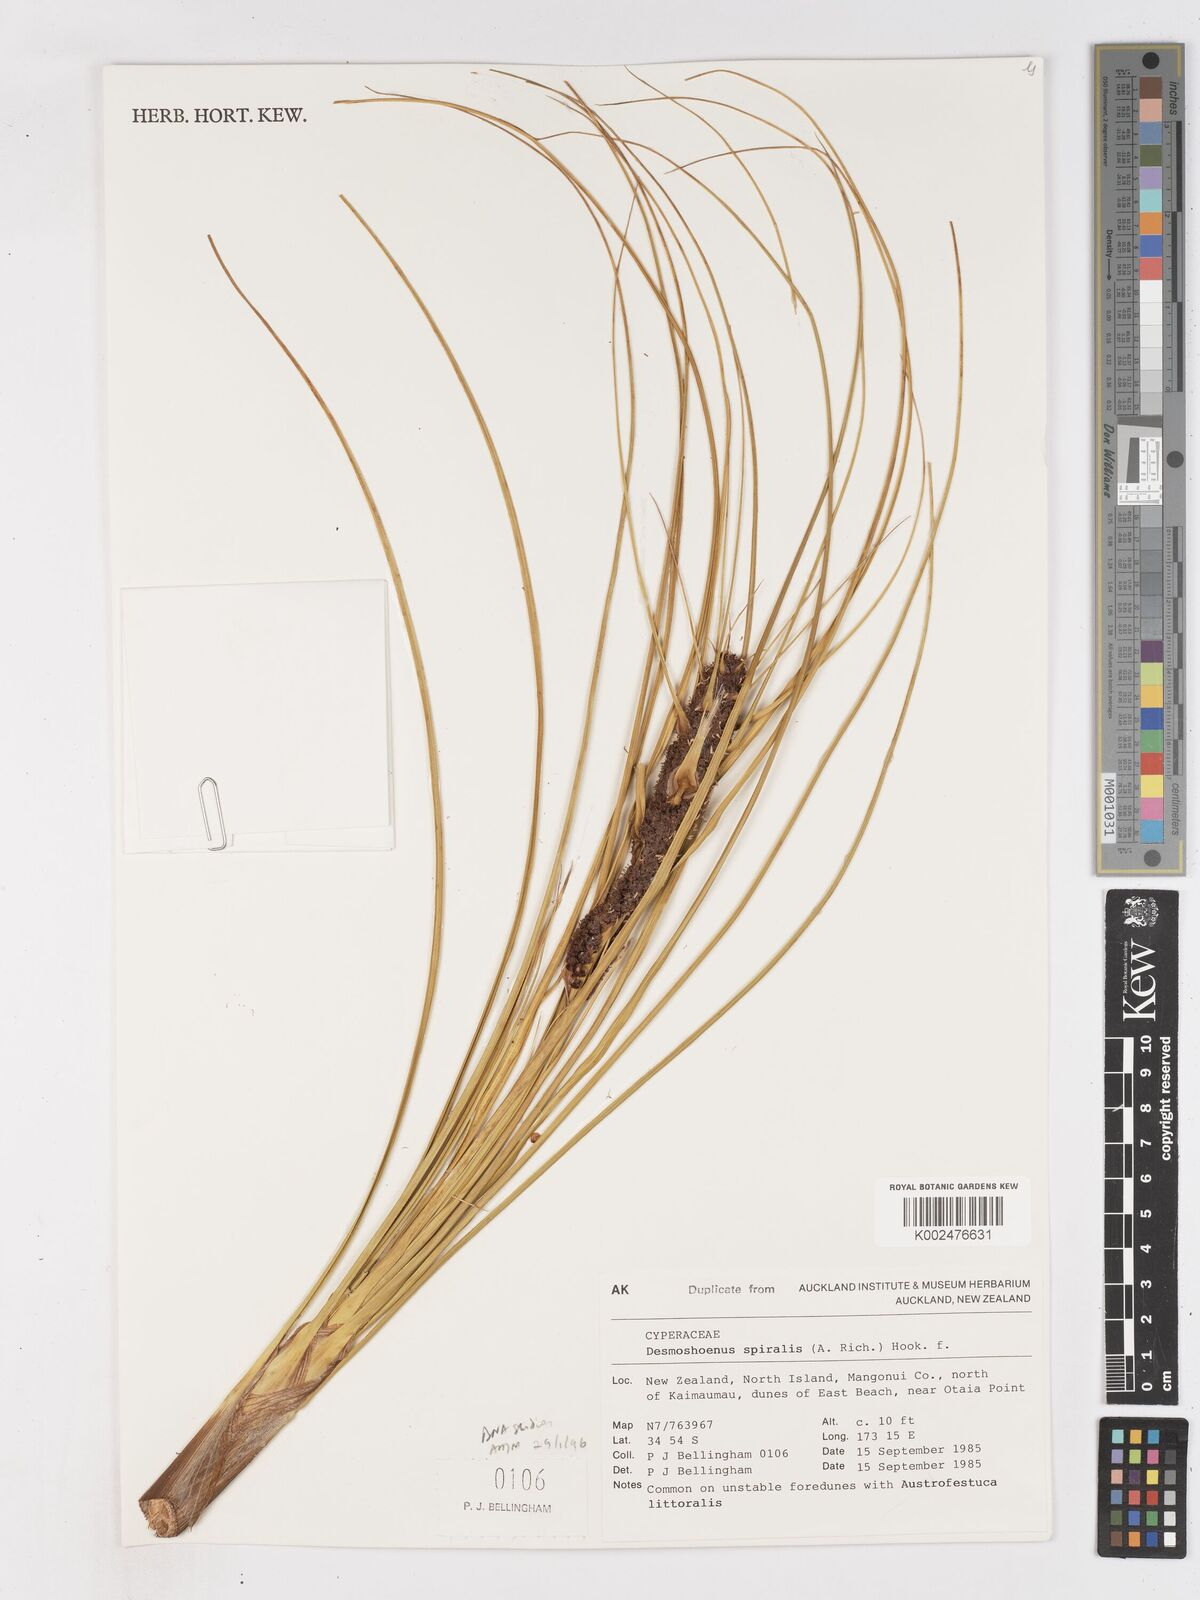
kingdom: Plantae
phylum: Tracheophyta
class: Liliopsida
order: Poales
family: Cyperaceae
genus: Ficinia
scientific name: Ficinia
